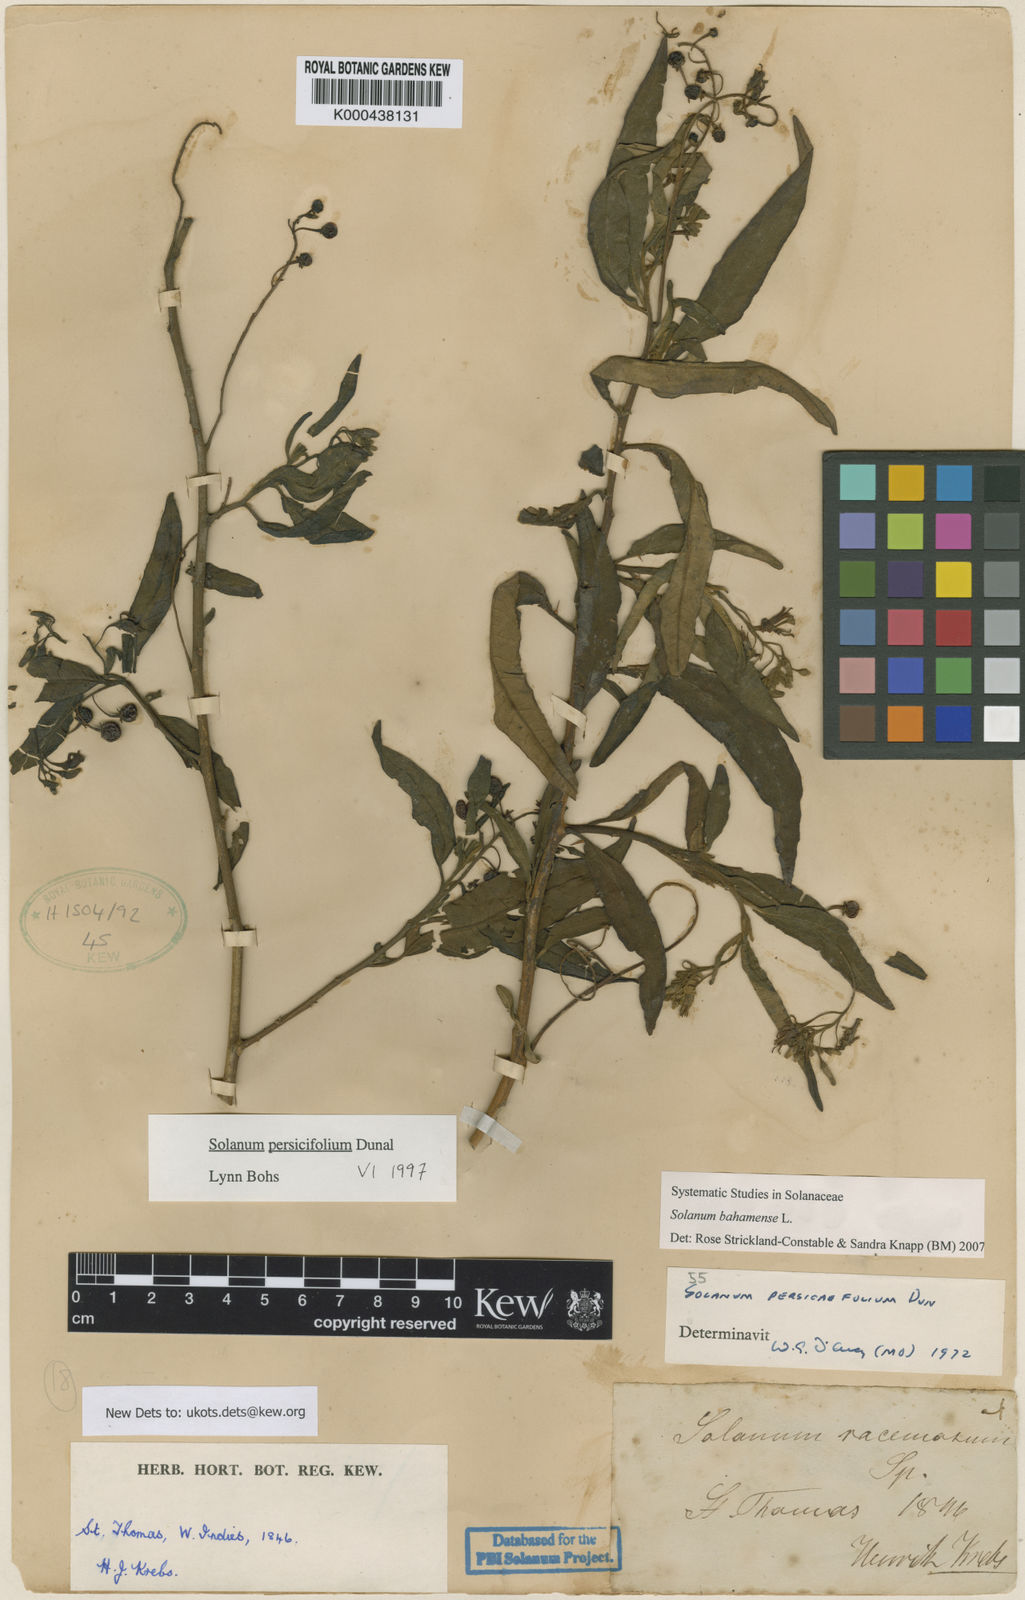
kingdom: Plantae
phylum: Tracheophyta
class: Magnoliopsida
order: Solanales
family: Solanaceae
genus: Solanum
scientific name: Solanum bahamense
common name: Canker-berry
